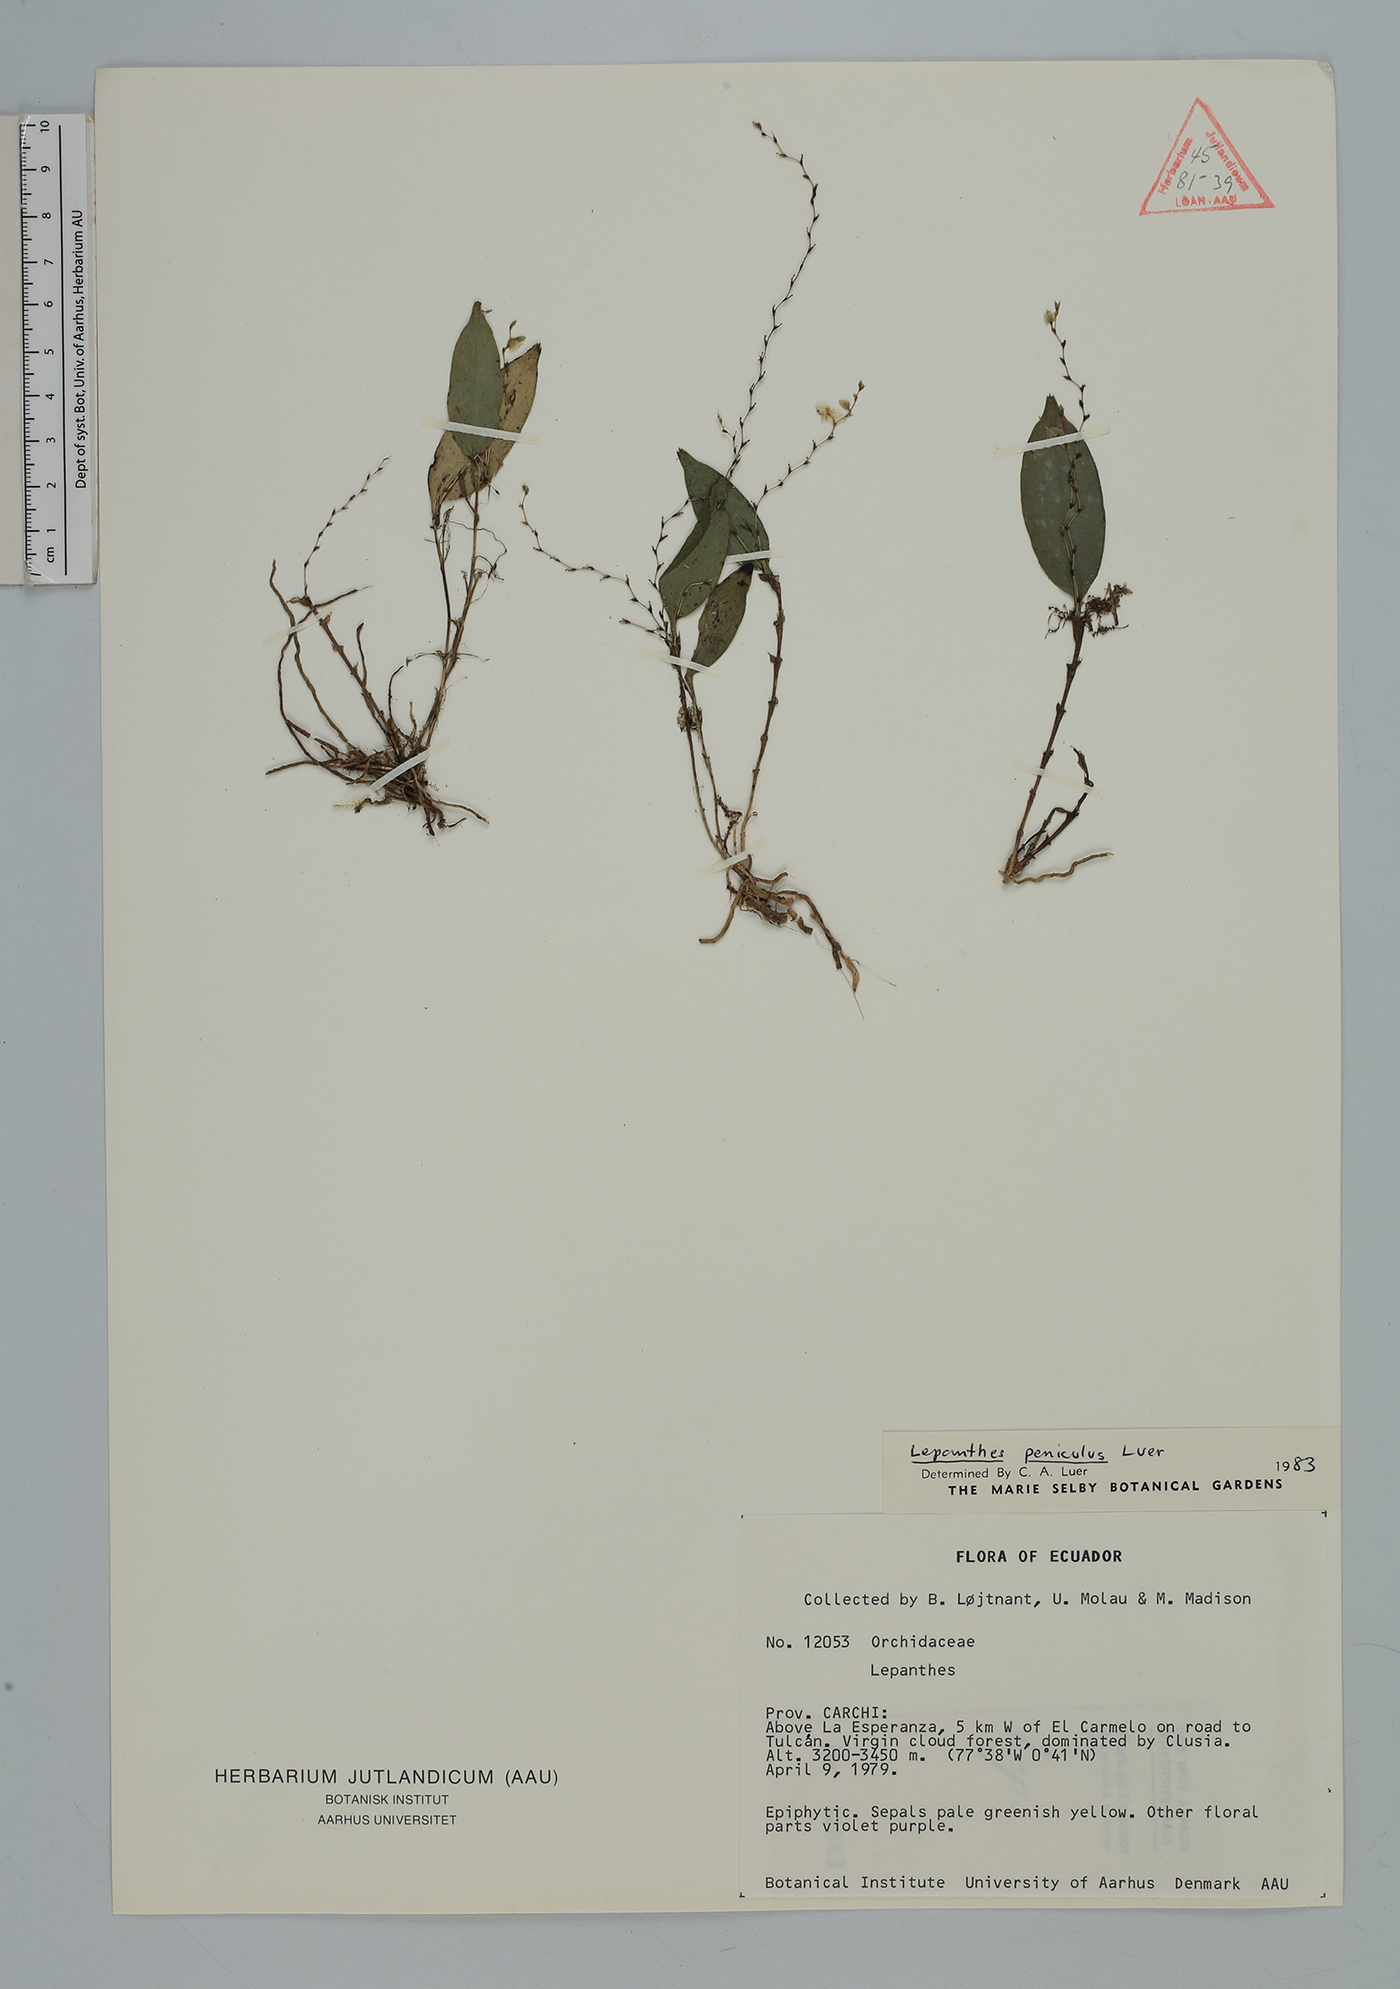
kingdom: Plantae
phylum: Tracheophyta
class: Liliopsida
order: Asparagales
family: Orchidaceae
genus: Lepanthes
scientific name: Lepanthes
